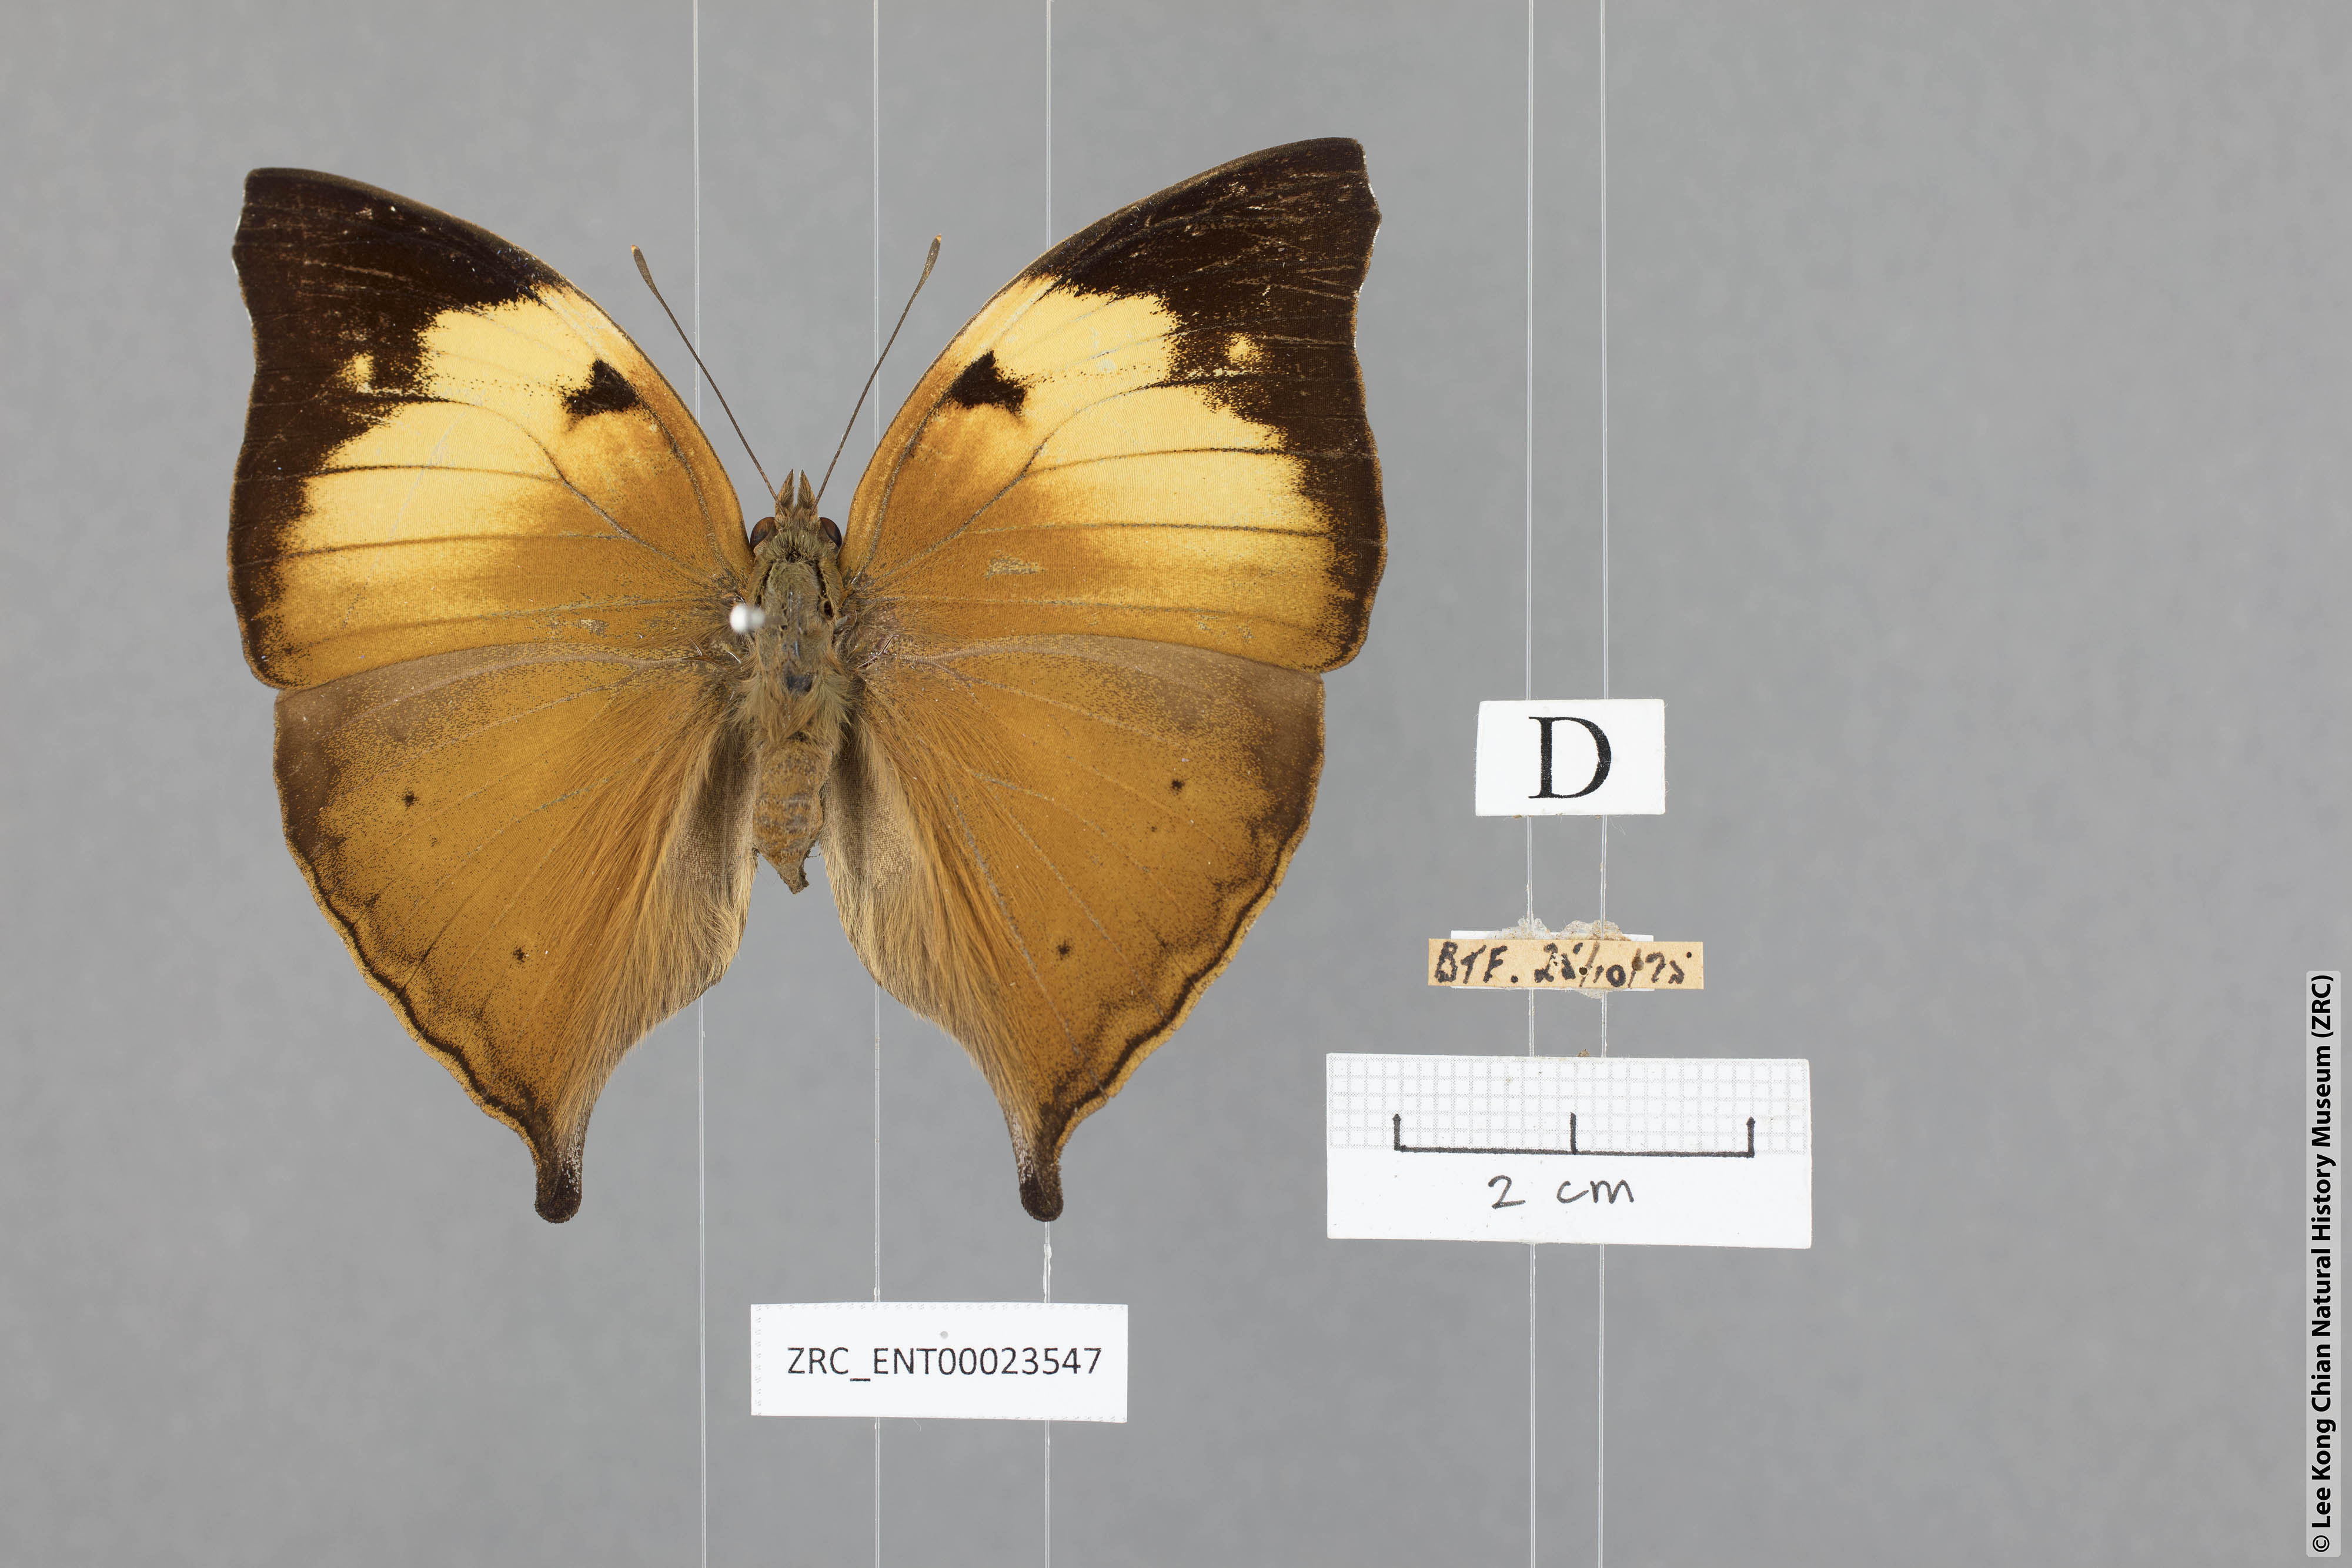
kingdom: Animalia
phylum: Arthropoda
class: Insecta
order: Lepidoptera
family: Nymphalidae
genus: Doleschallia
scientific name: Doleschallia bisaltide
